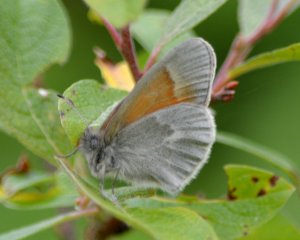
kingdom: Animalia
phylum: Arthropoda
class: Insecta
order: Lepidoptera
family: Nymphalidae
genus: Coenonympha
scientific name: Coenonympha tullia
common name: Large Heath
